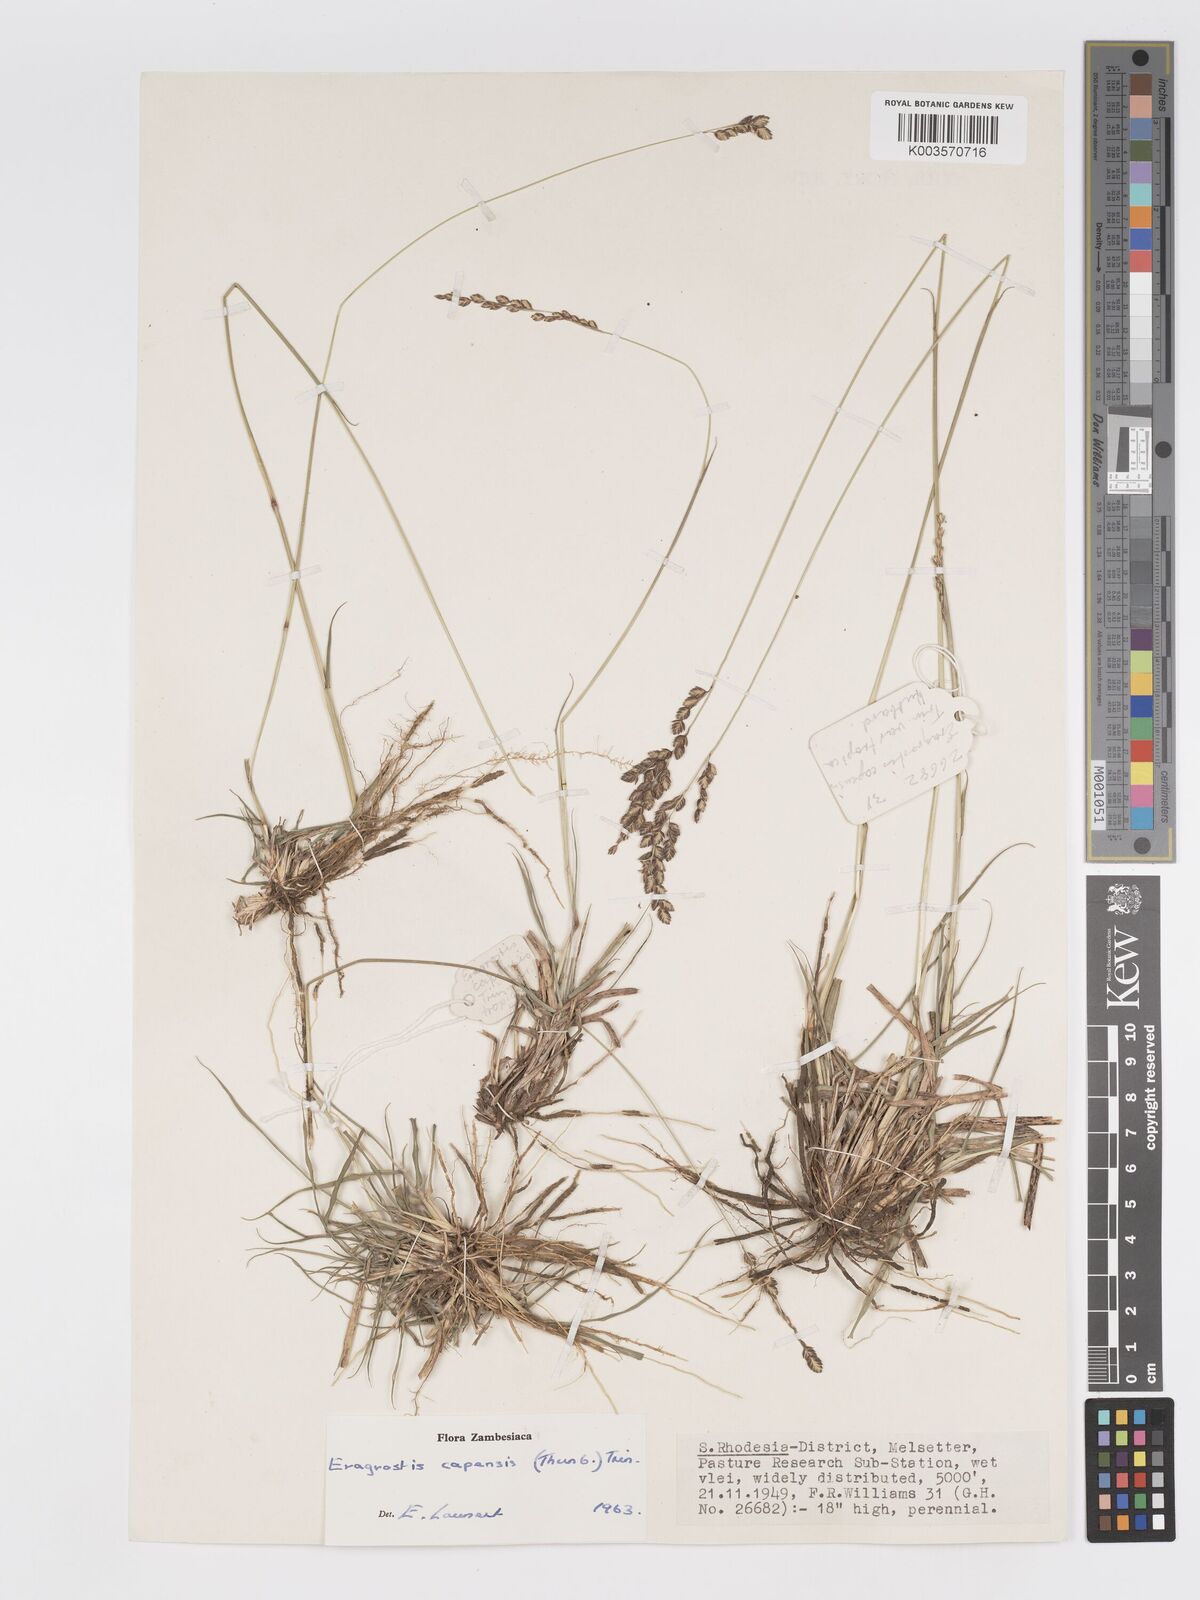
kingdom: Plantae
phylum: Tracheophyta
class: Liliopsida
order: Poales
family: Poaceae
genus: Eragrostis
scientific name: Eragrostis capensis
